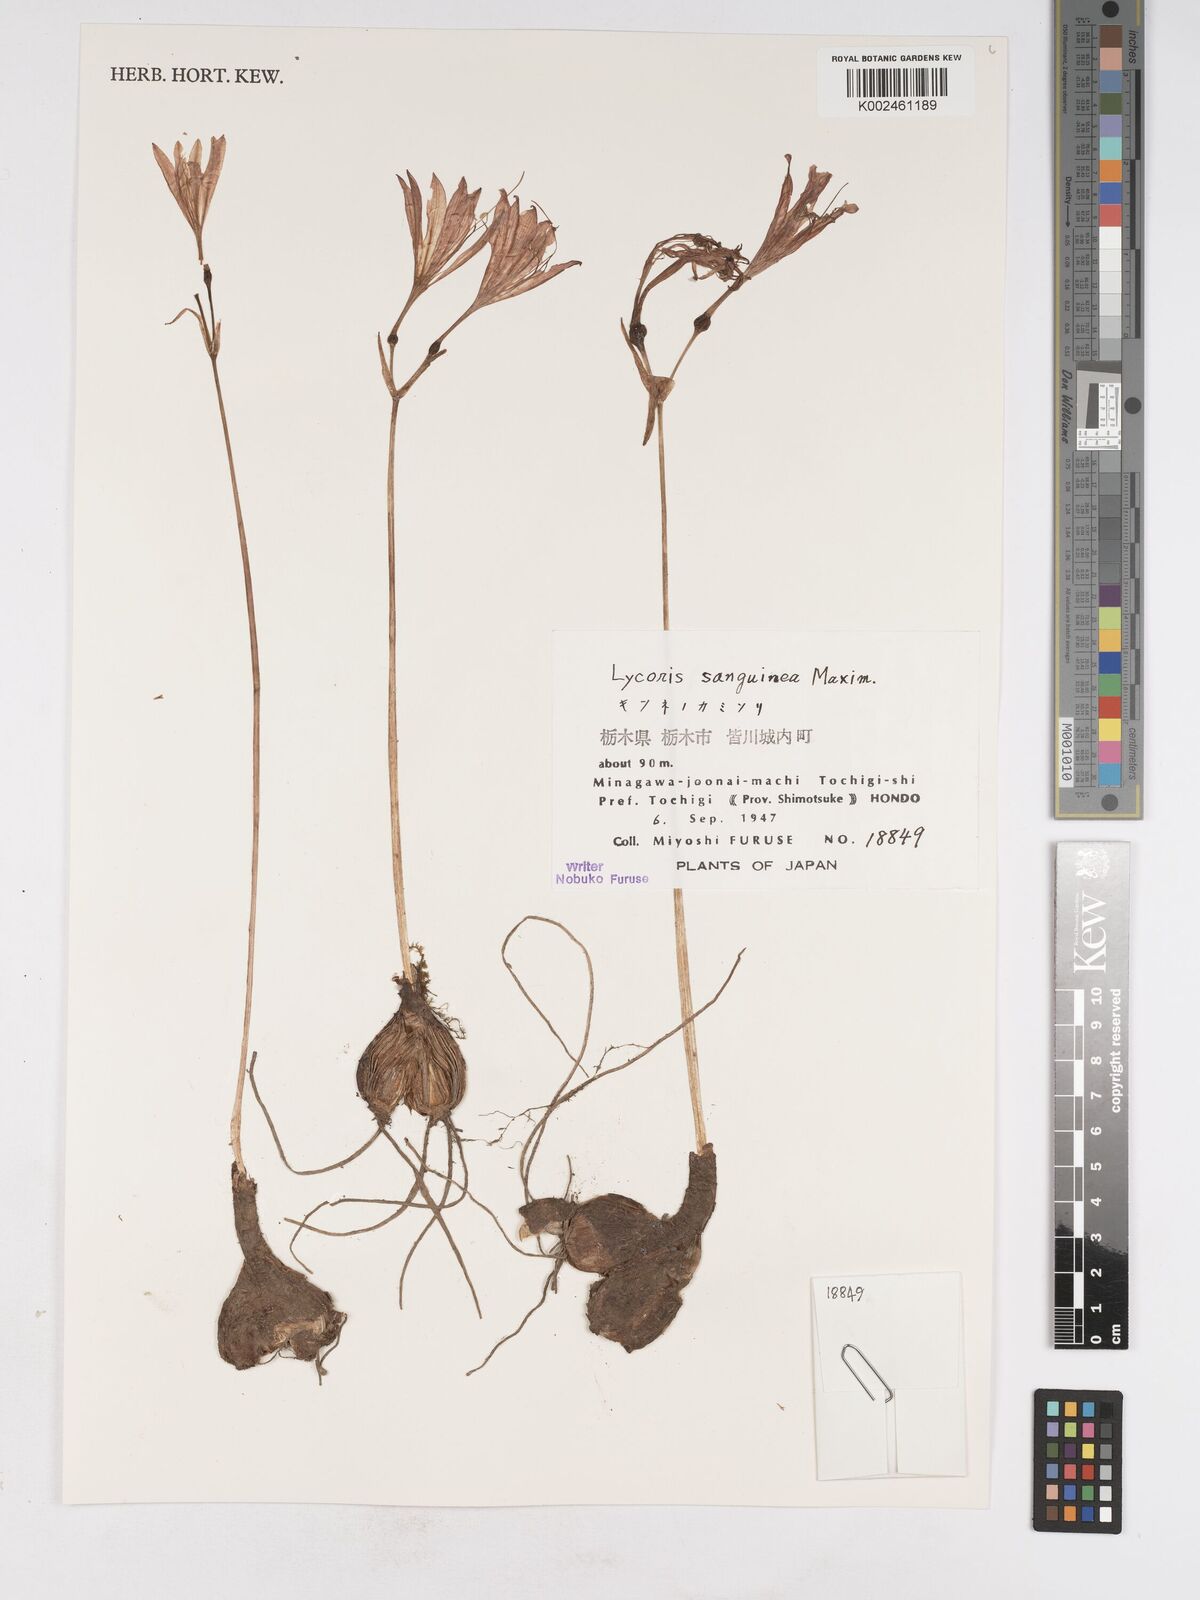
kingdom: Plantae
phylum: Tracheophyta
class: Liliopsida
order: Asparagales
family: Amaryllidaceae
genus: Lycoris
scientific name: Lycoris sanguinea
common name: Spider-lily
